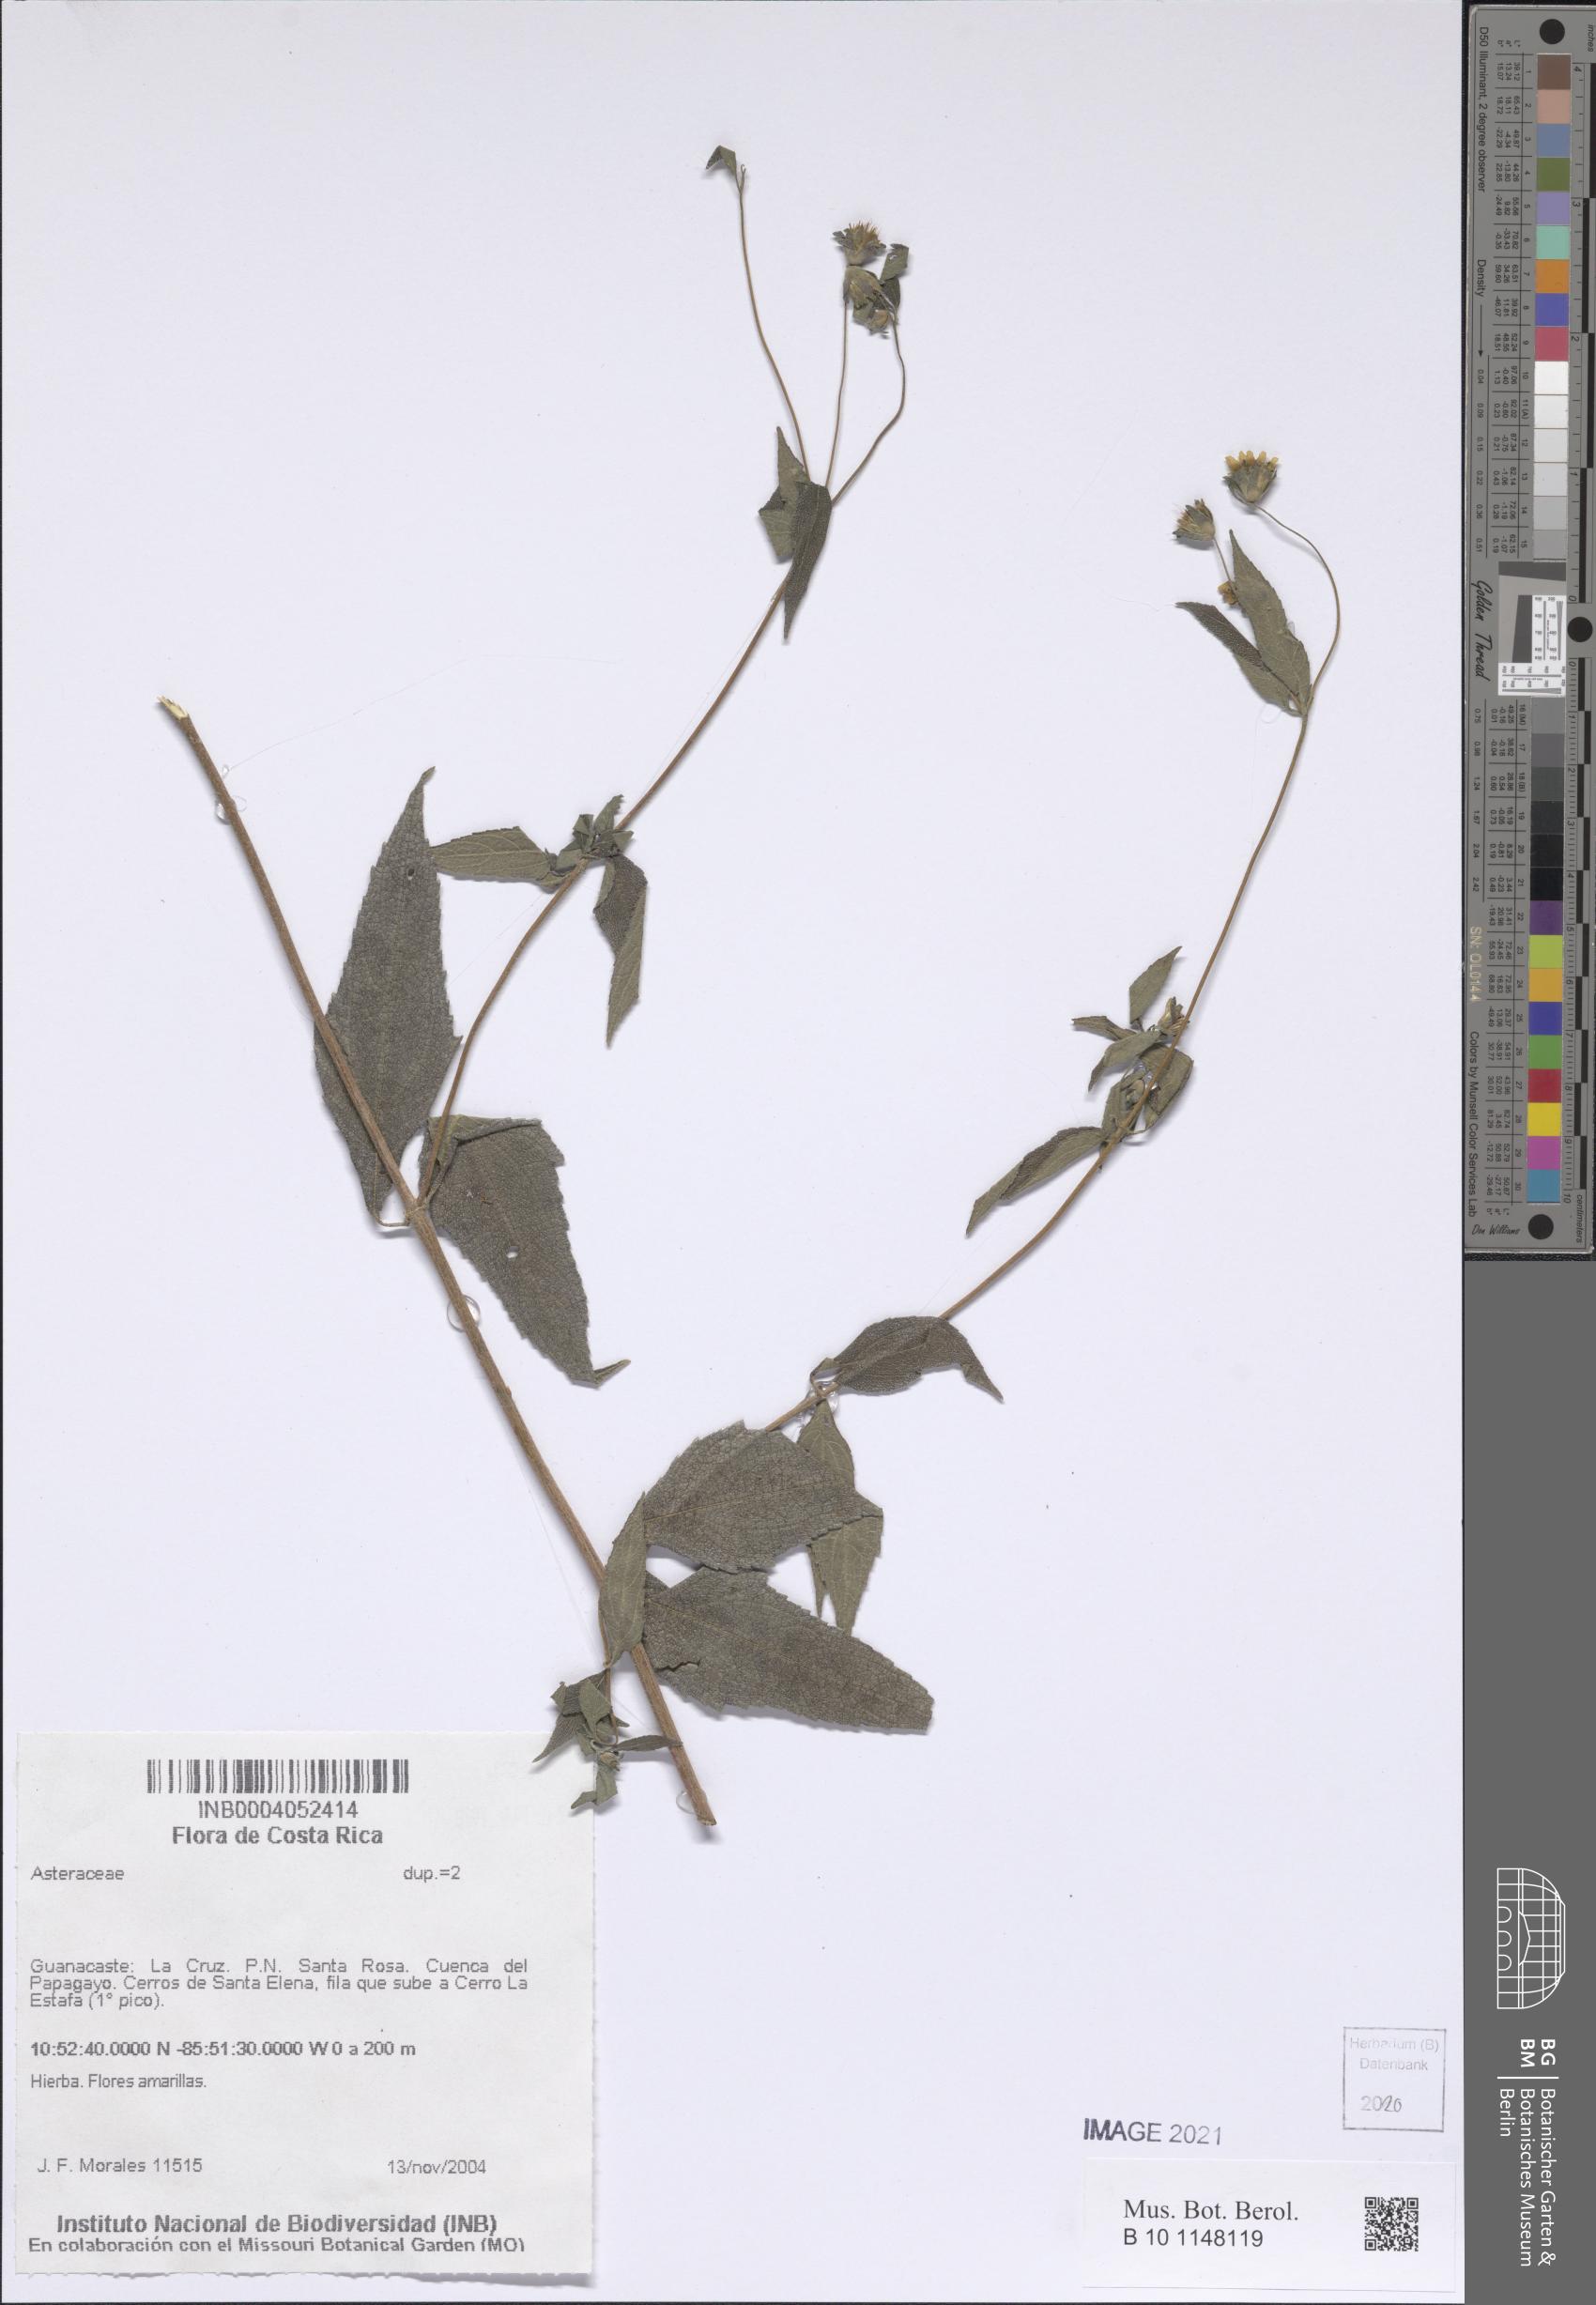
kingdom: Plantae
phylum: Tracheophyta
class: Magnoliopsida
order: Asterales
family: Asteraceae
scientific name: Asteraceae
